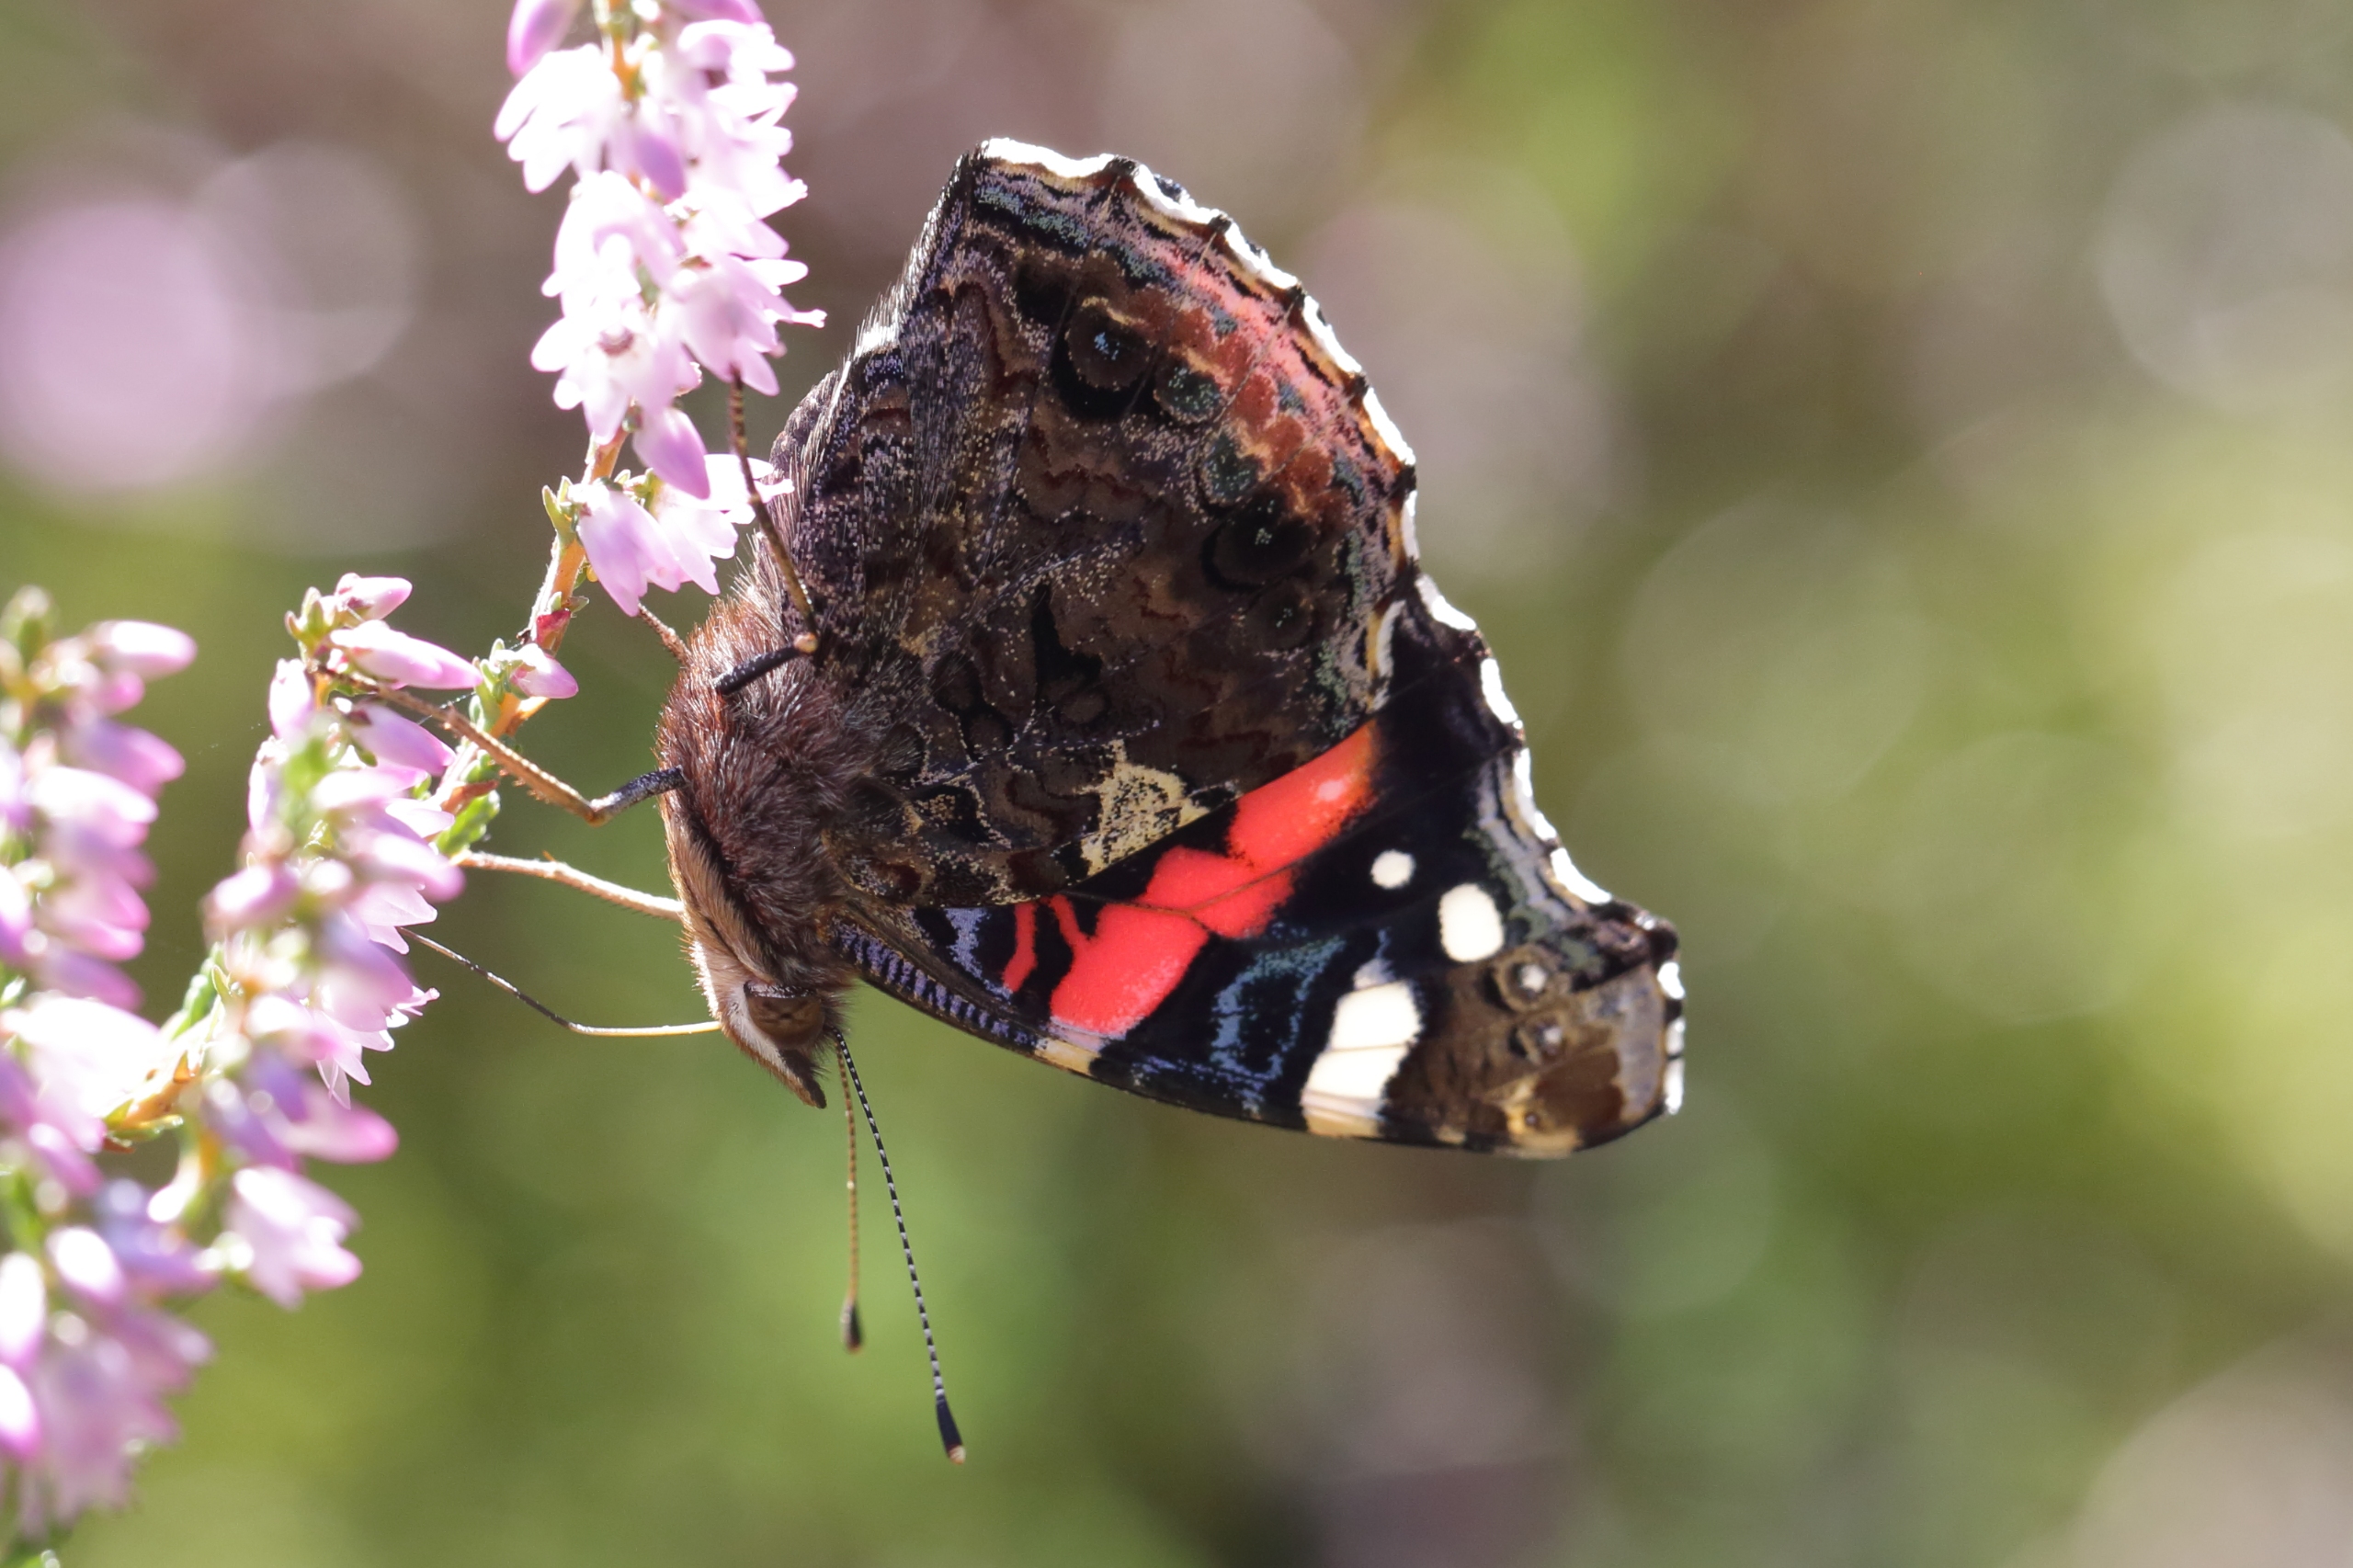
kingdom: Animalia
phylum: Arthropoda
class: Insecta
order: Lepidoptera
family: Nymphalidae
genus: Vanessa
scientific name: Vanessa atalanta
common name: Admiral
